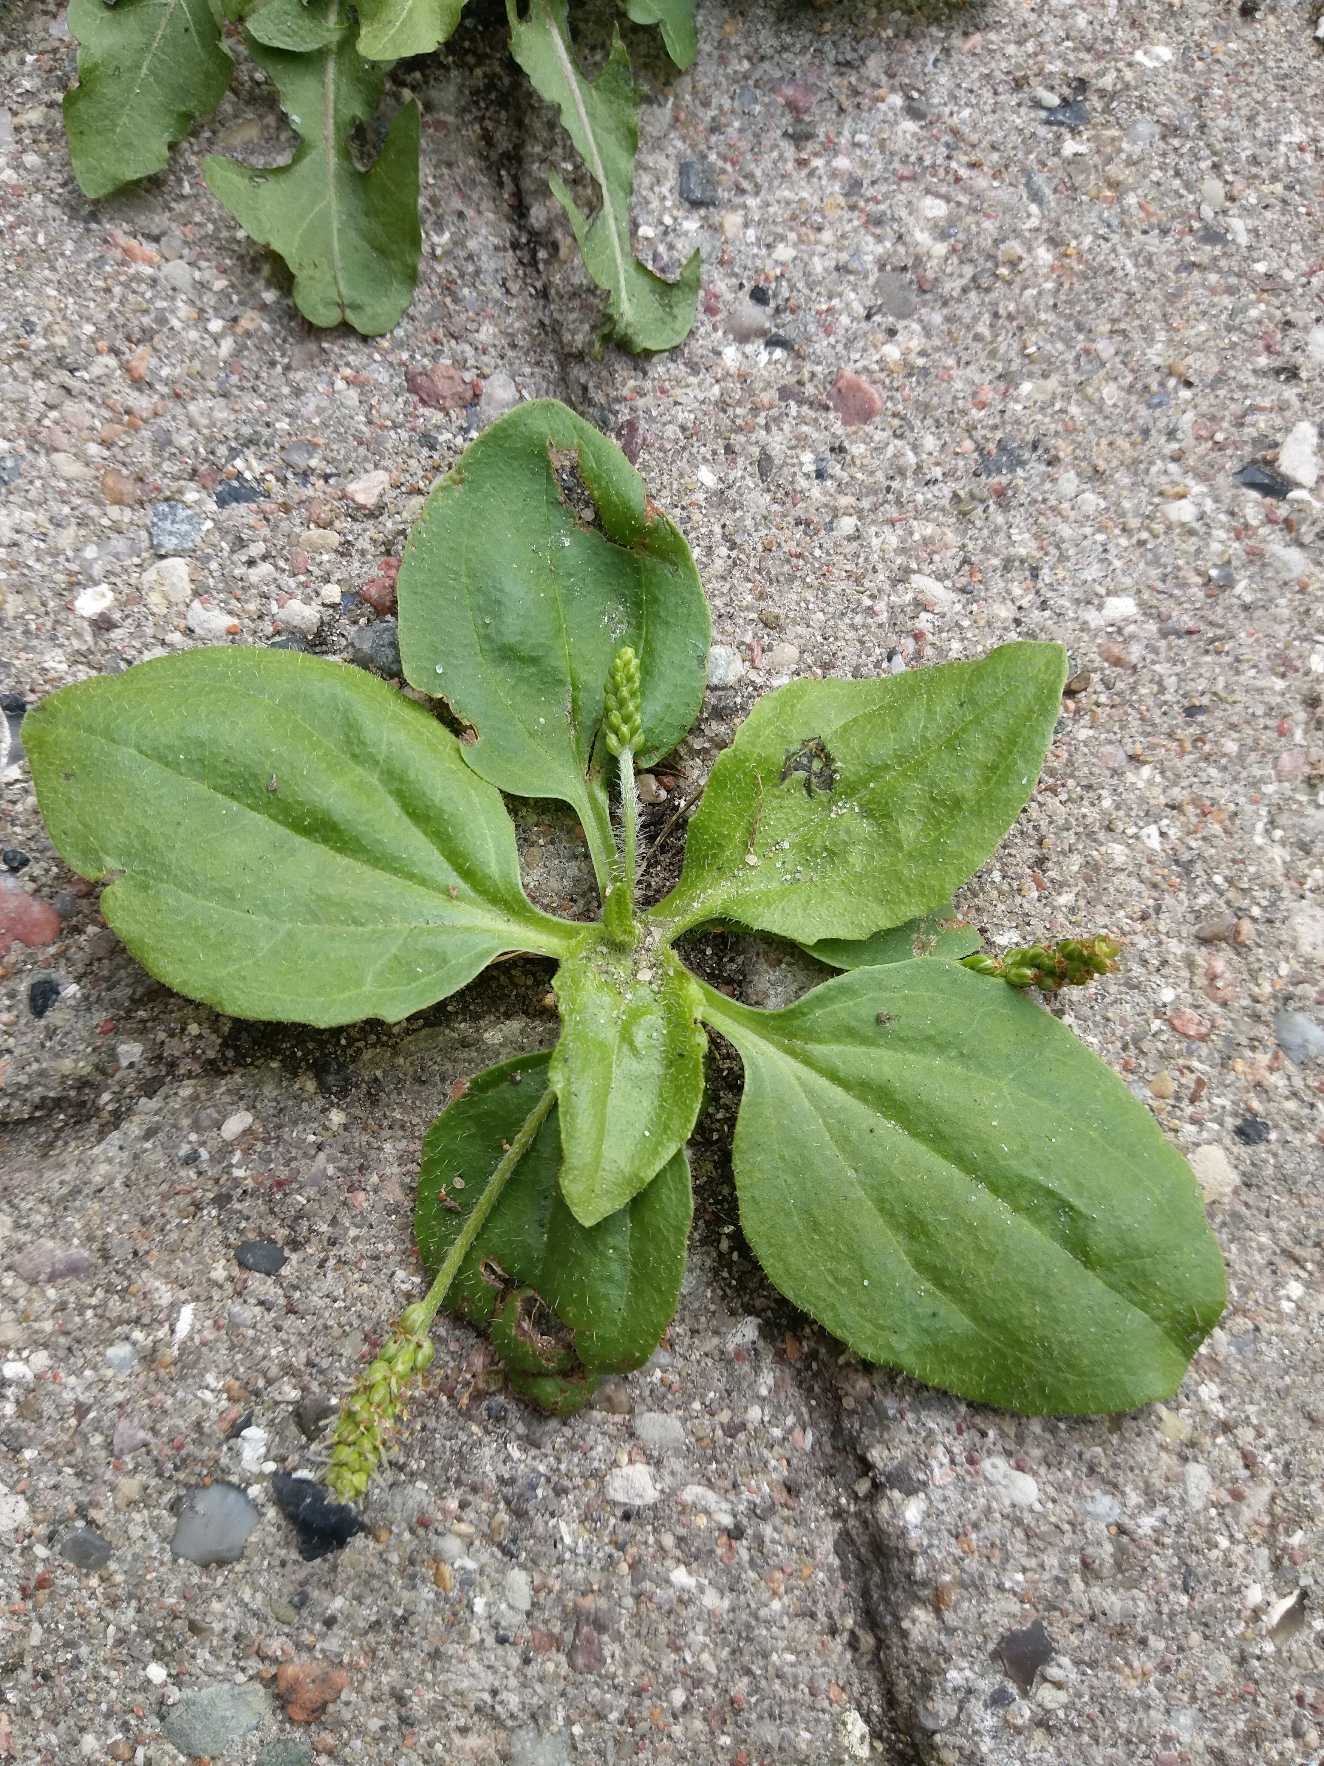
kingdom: Plantae
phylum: Tracheophyta
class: Magnoliopsida
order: Lamiales
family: Plantaginaceae
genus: Plantago
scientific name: Plantago uliginosa
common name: Ager-vejbred
